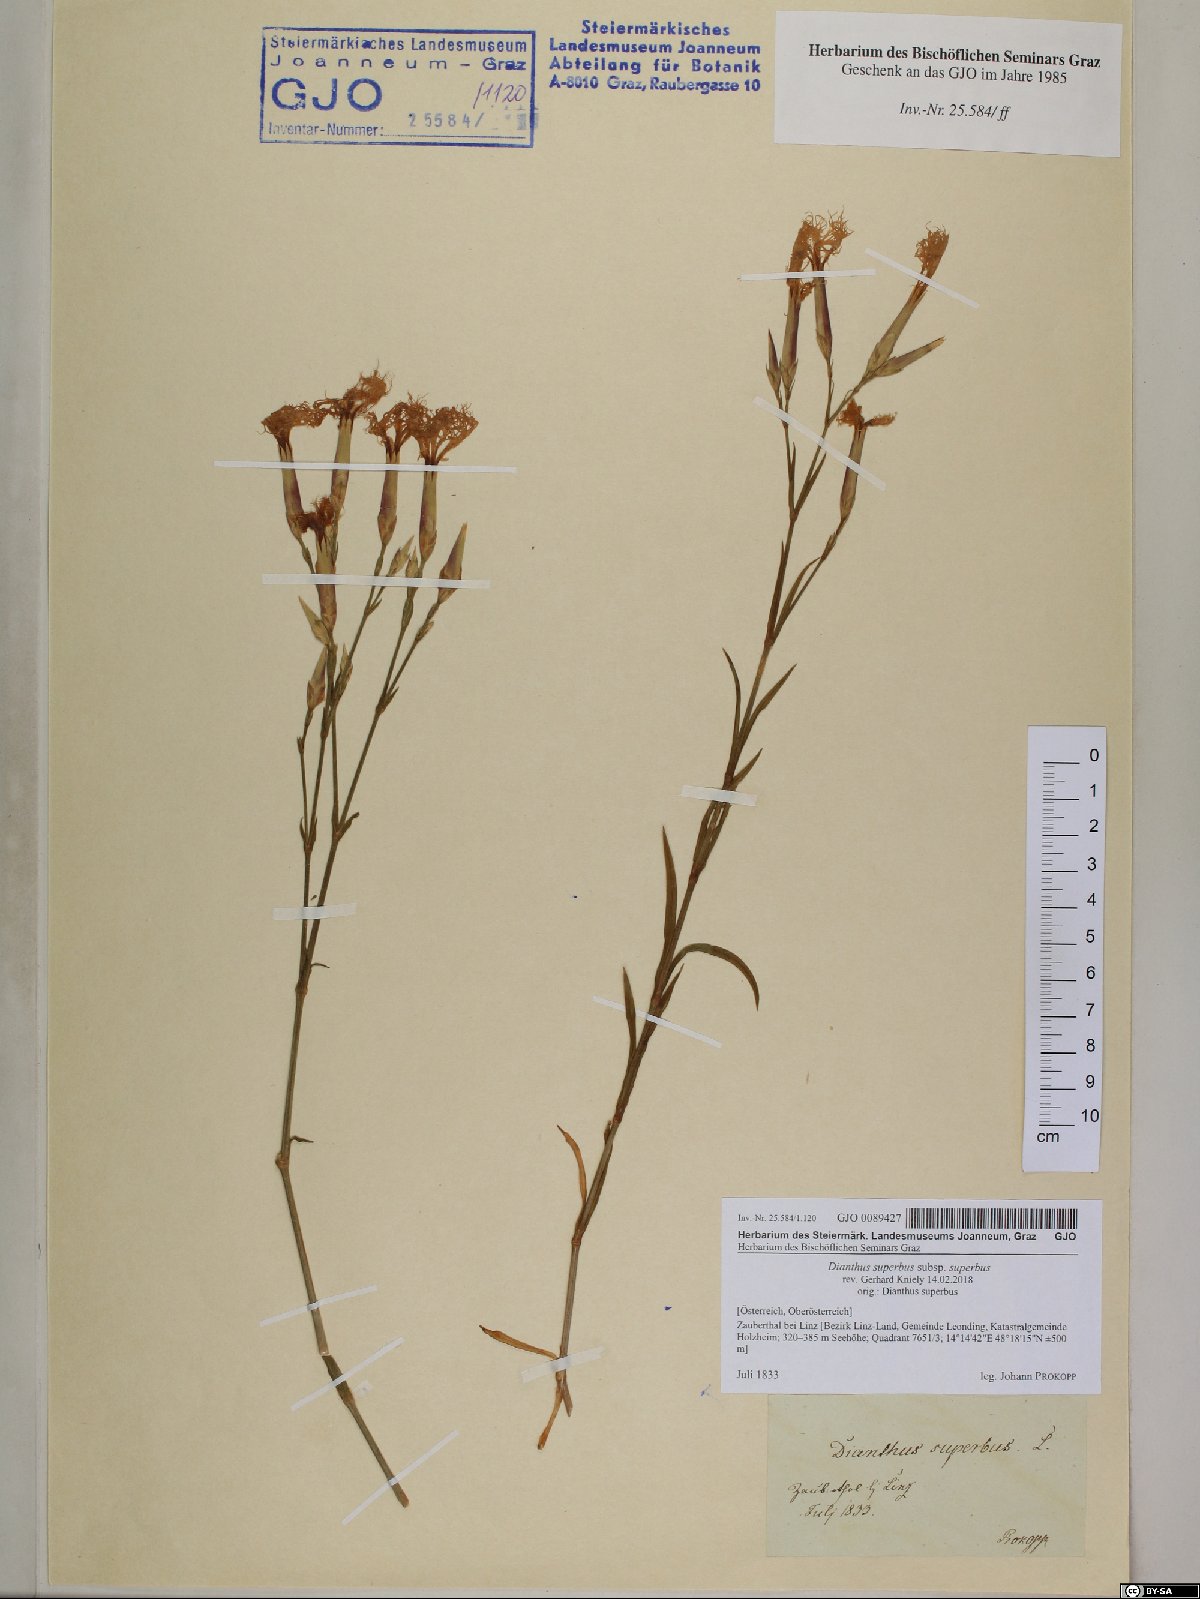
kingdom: Plantae
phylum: Tracheophyta
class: Magnoliopsida
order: Caryophyllales
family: Caryophyllaceae
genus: Dianthus
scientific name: Dianthus superbus
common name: Fringed pink
